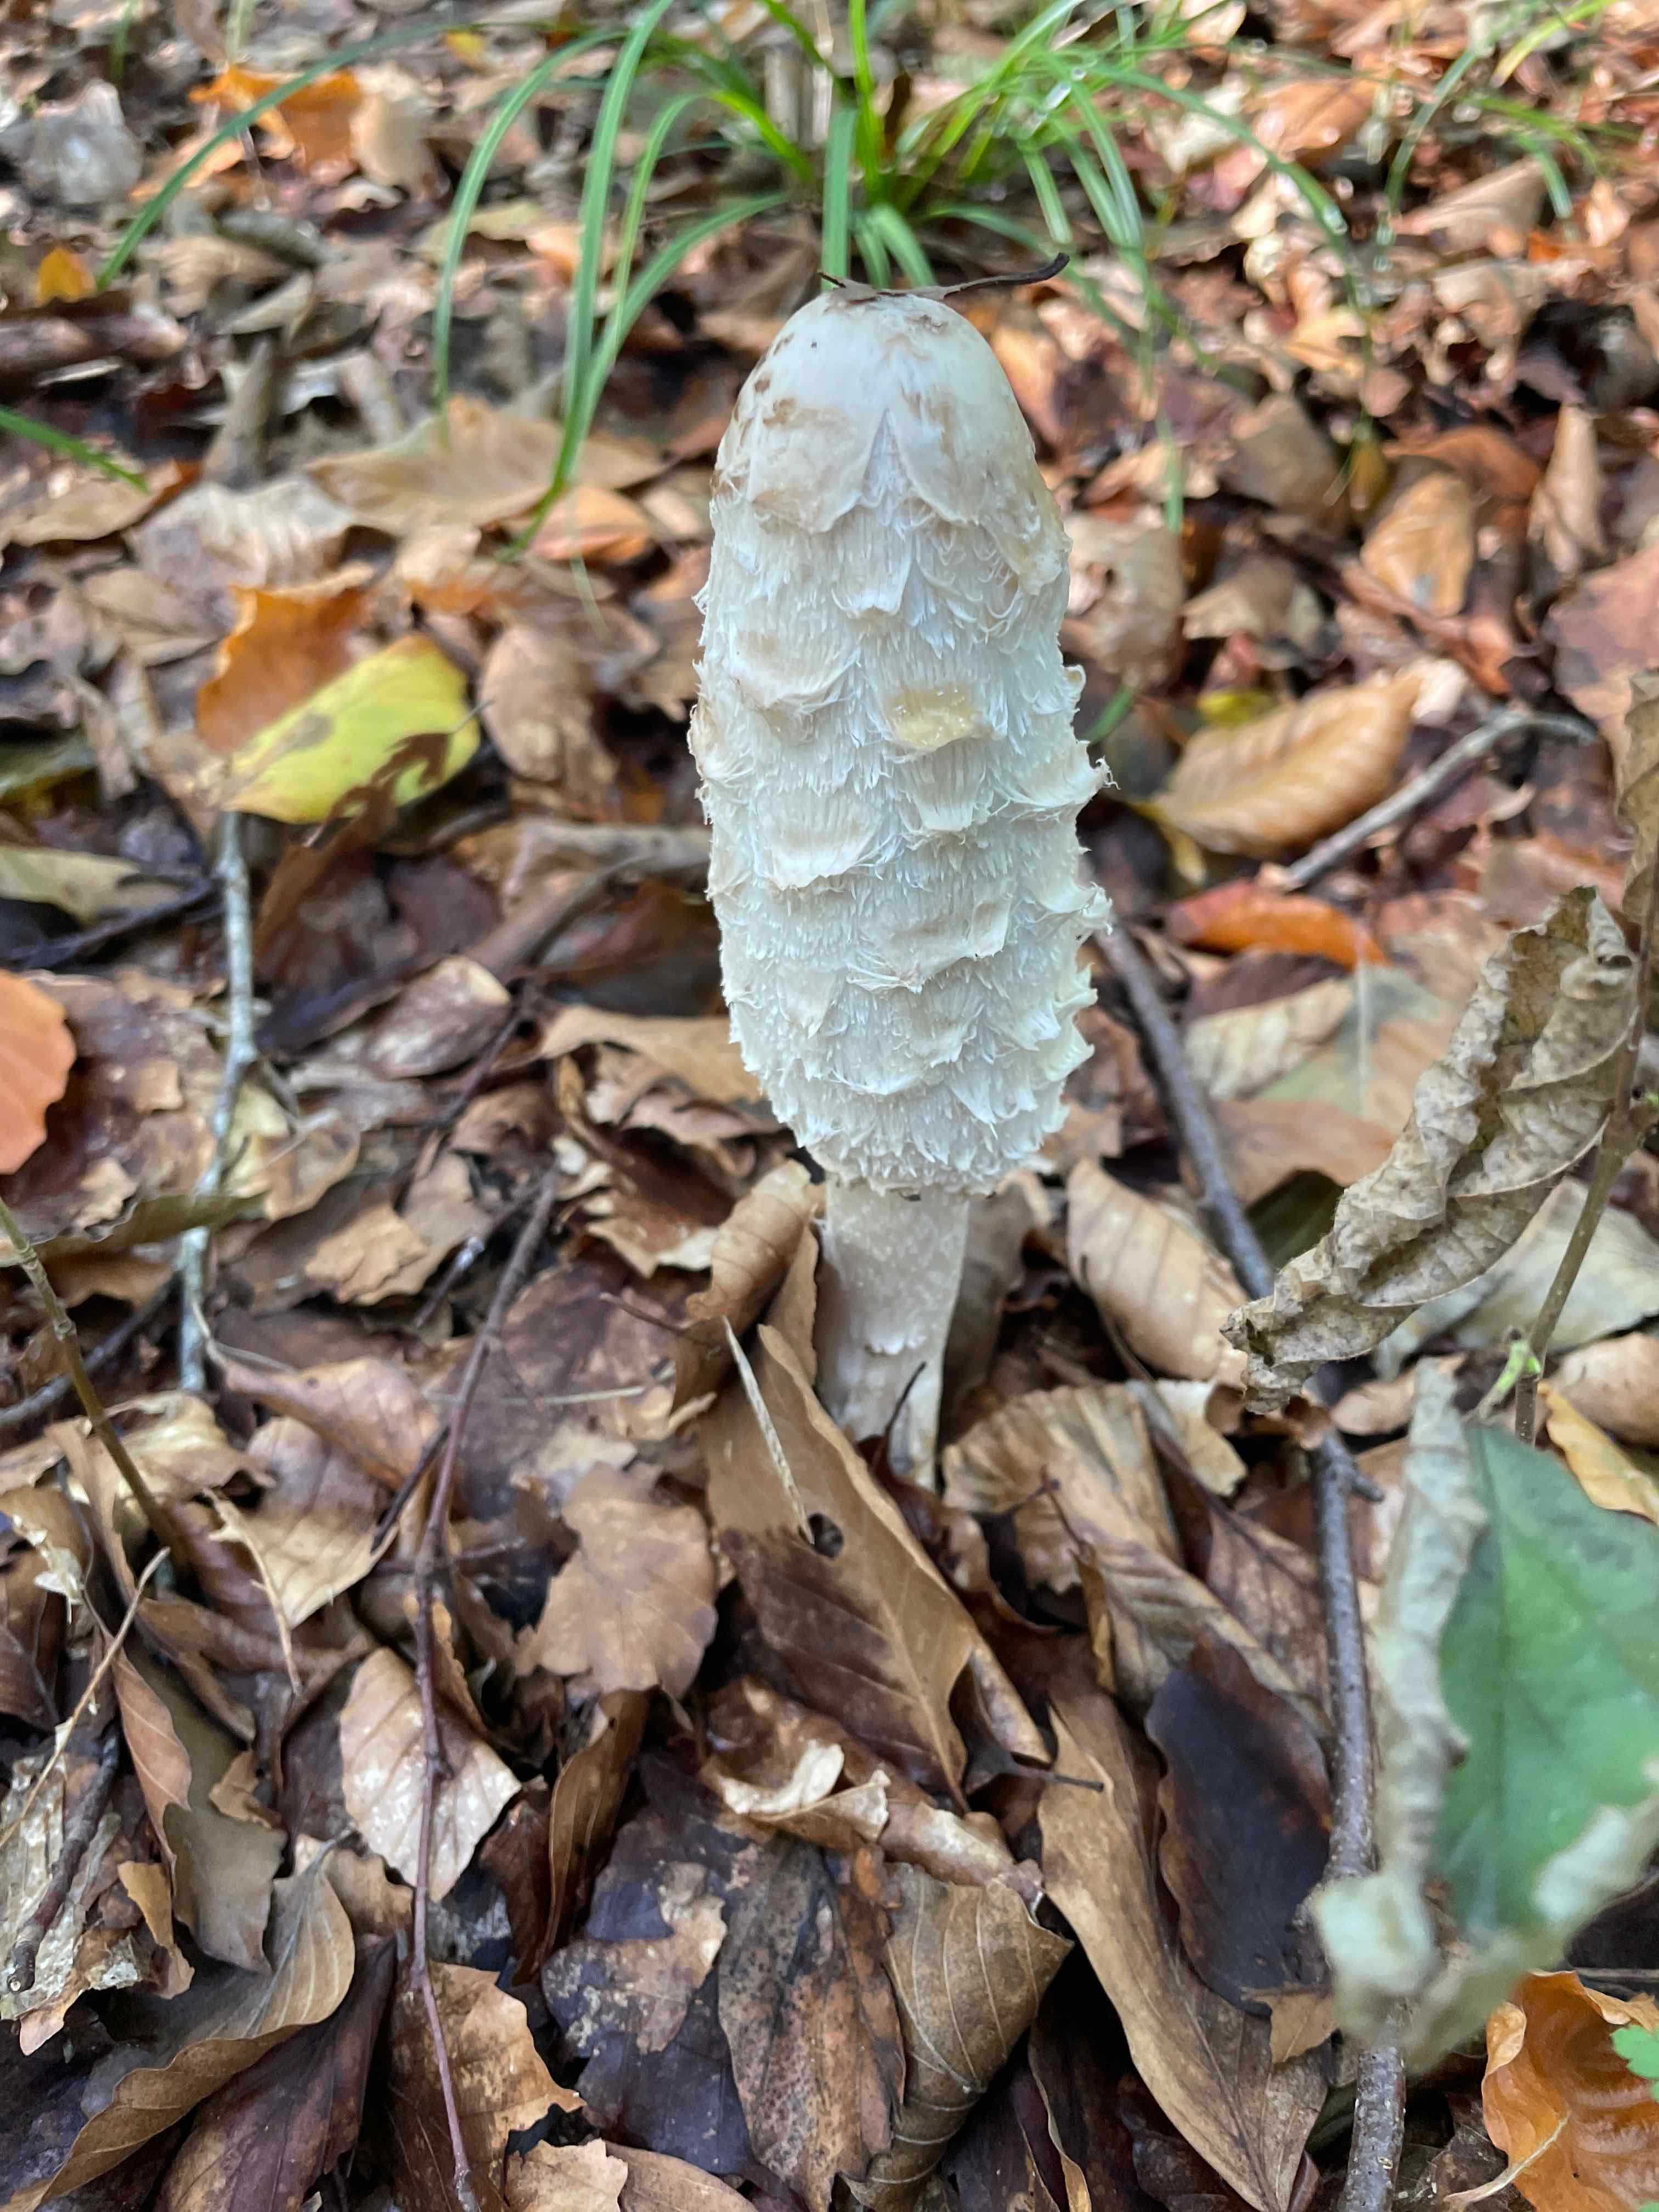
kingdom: Fungi
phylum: Basidiomycota
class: Agaricomycetes
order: Agaricales
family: Agaricaceae
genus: Coprinus
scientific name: Coprinus comatus
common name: stor parykhat
